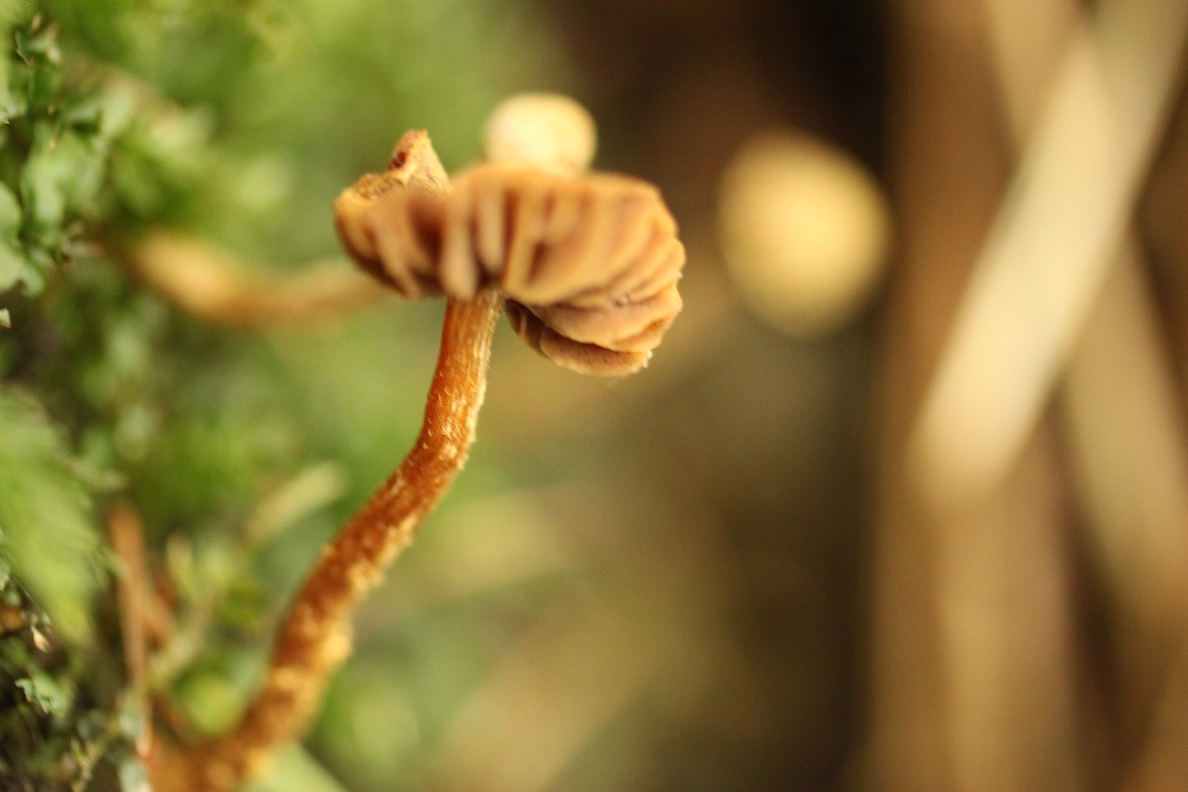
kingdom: Fungi
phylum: Basidiomycota
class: Agaricomycetes
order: Agaricales
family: Cortinariaceae
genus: Cortinarius
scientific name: Cortinarius helvelloides
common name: fjernbladet slørhat
